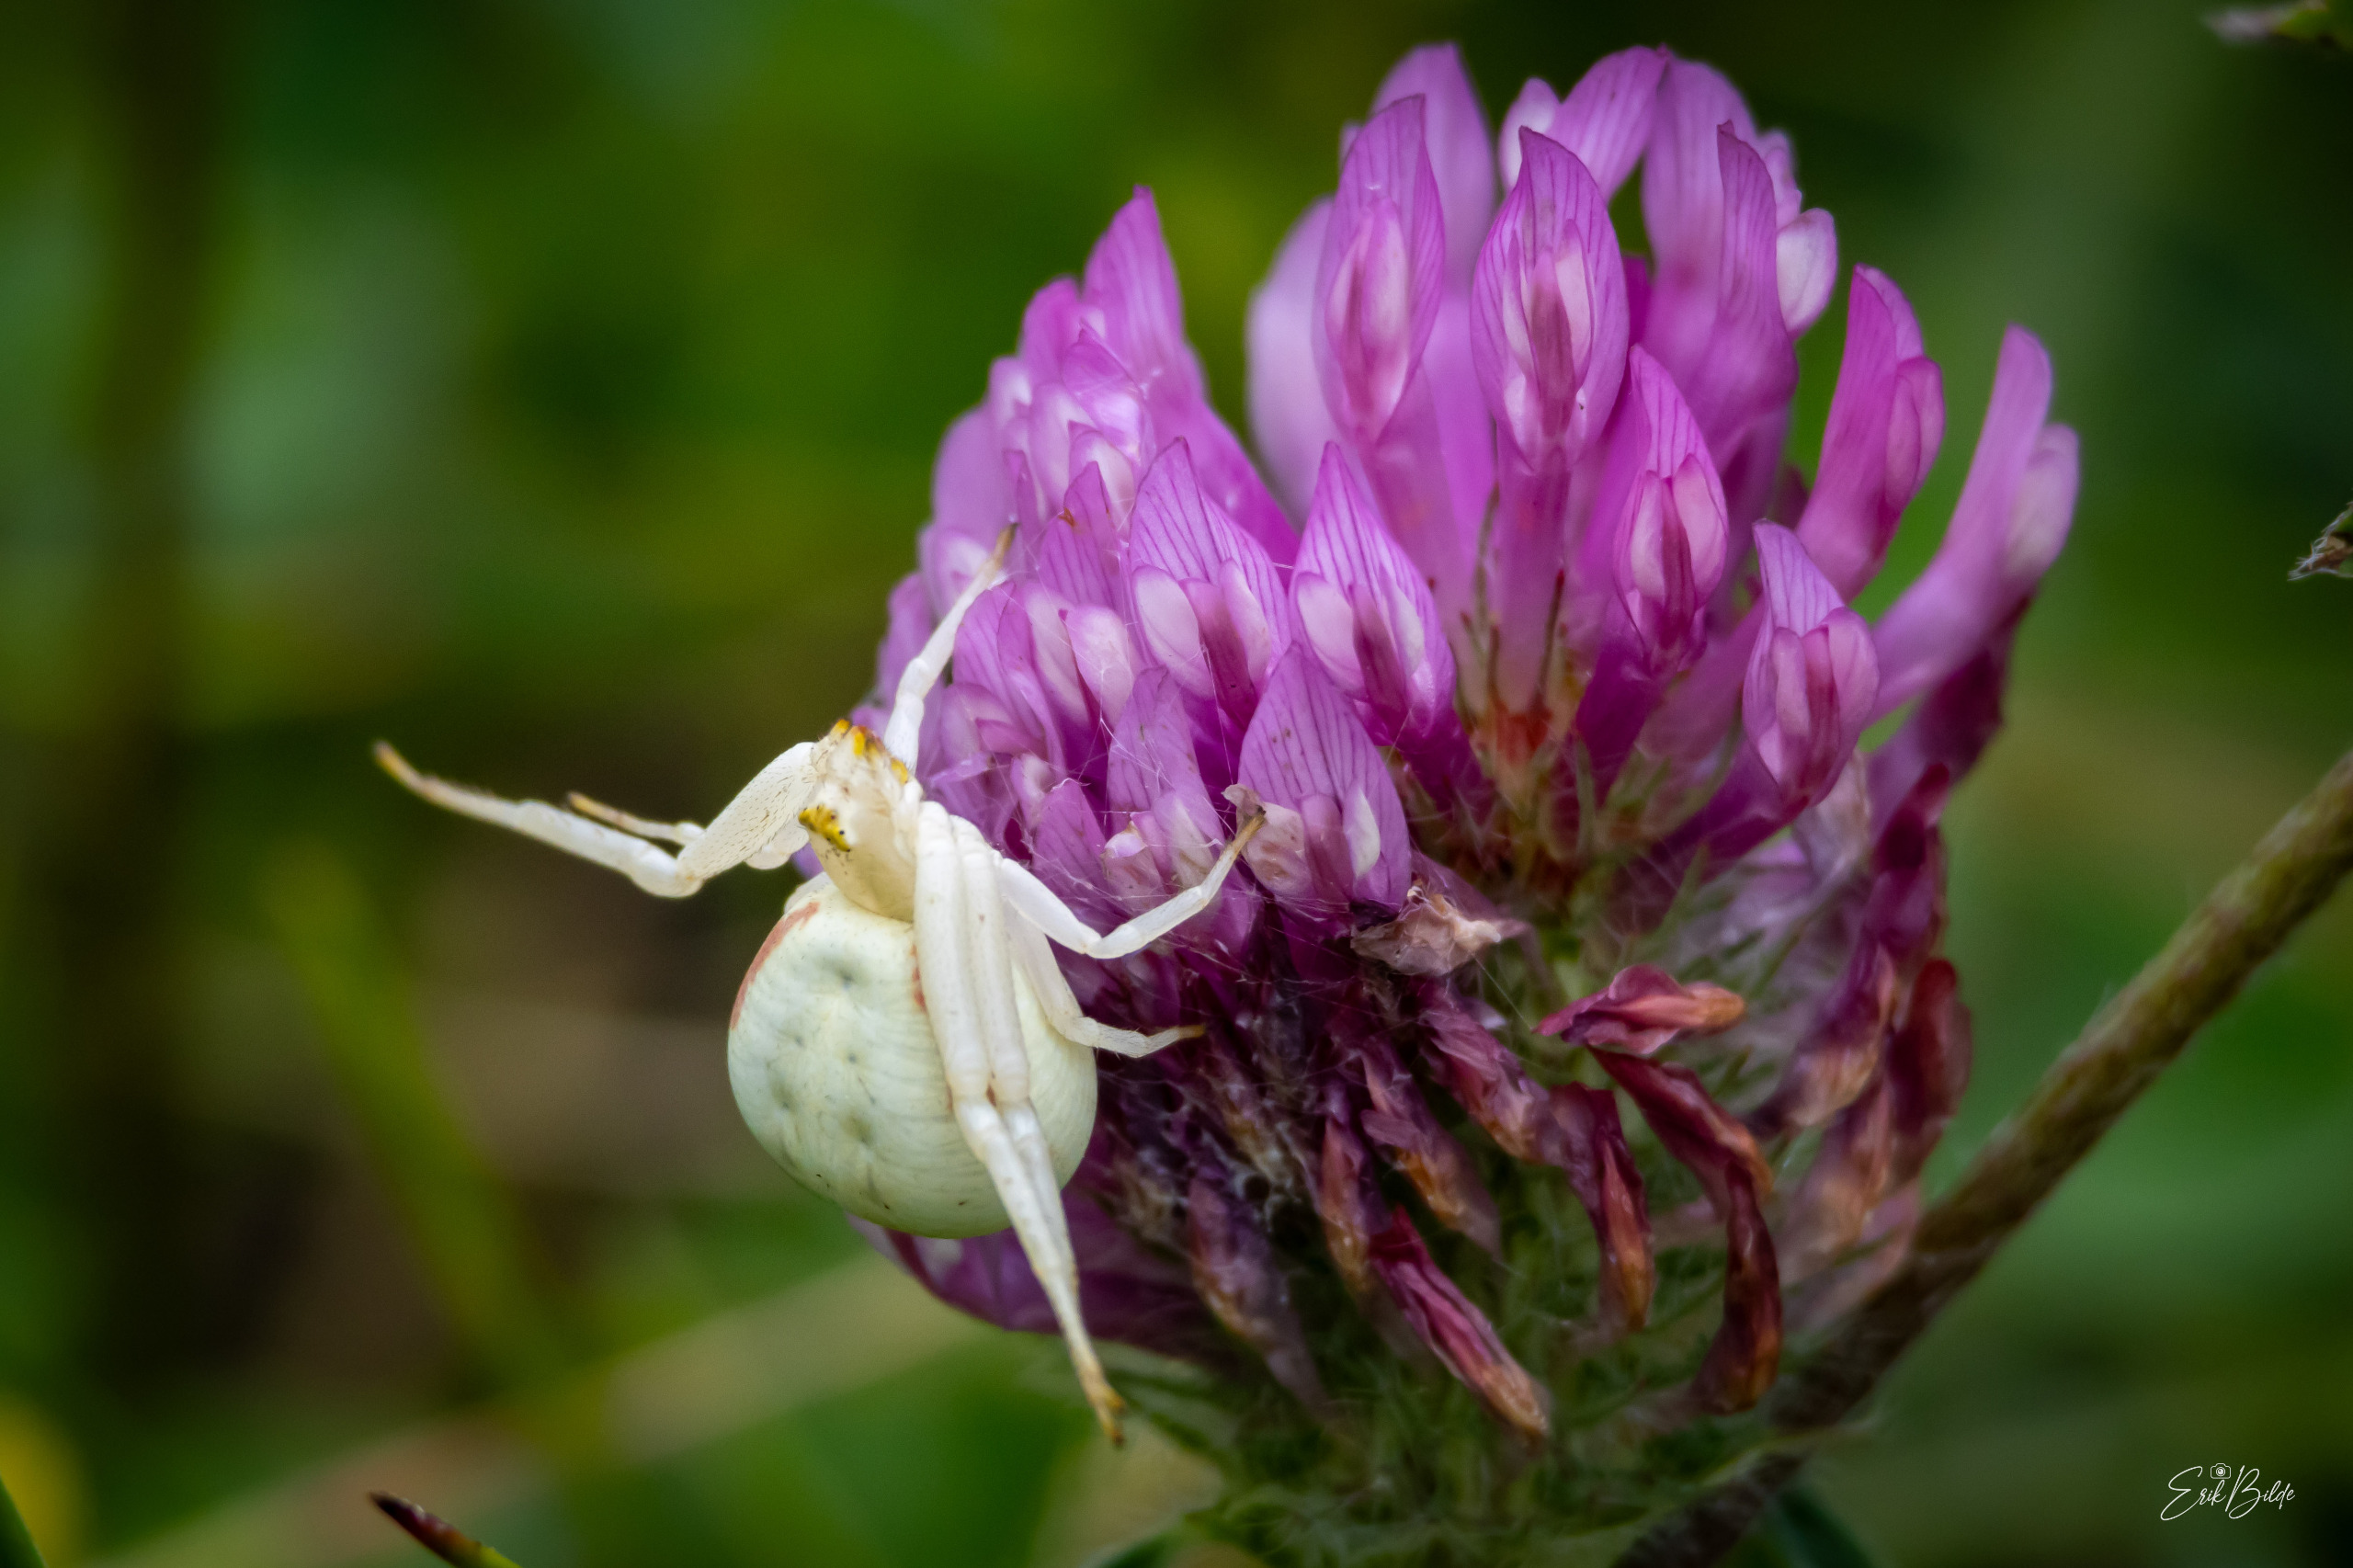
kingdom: Animalia
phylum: Arthropoda
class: Arachnida
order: Araneae
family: Thomisidae
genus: Misumena
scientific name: Misumena vatia
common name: Kamæleonedderkop
